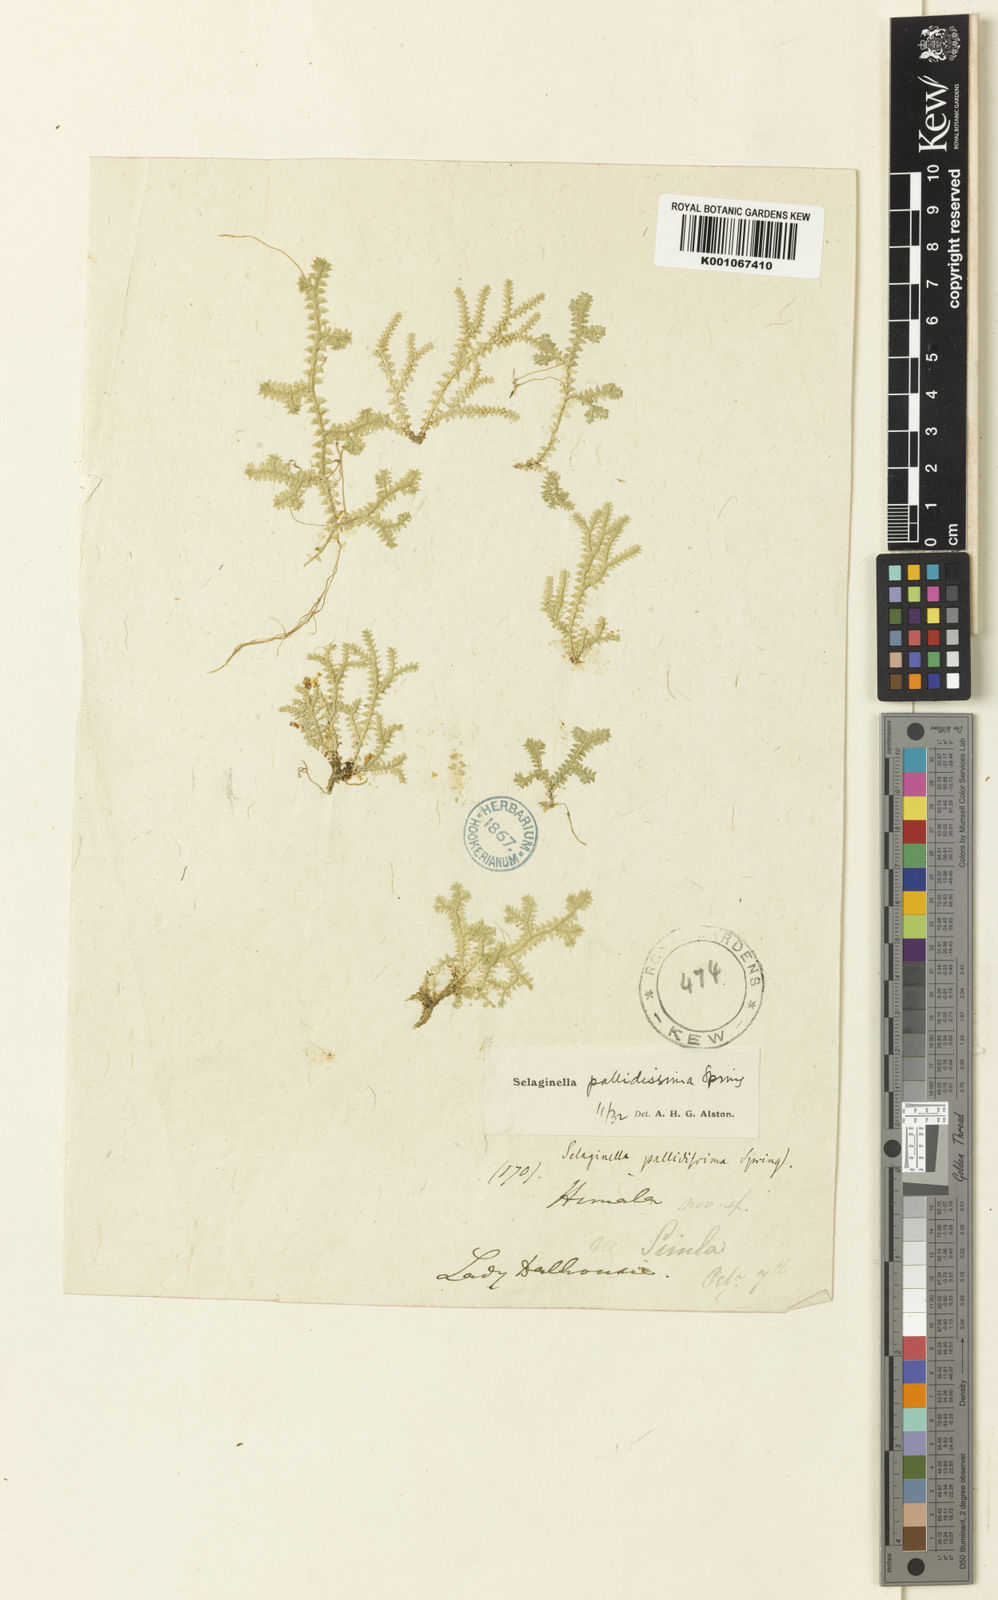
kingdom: Plantae
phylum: Tracheophyta
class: Lycopodiopsida
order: Selaginellales
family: Selaginellaceae
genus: Selaginella
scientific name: Selaginella pallidissima
